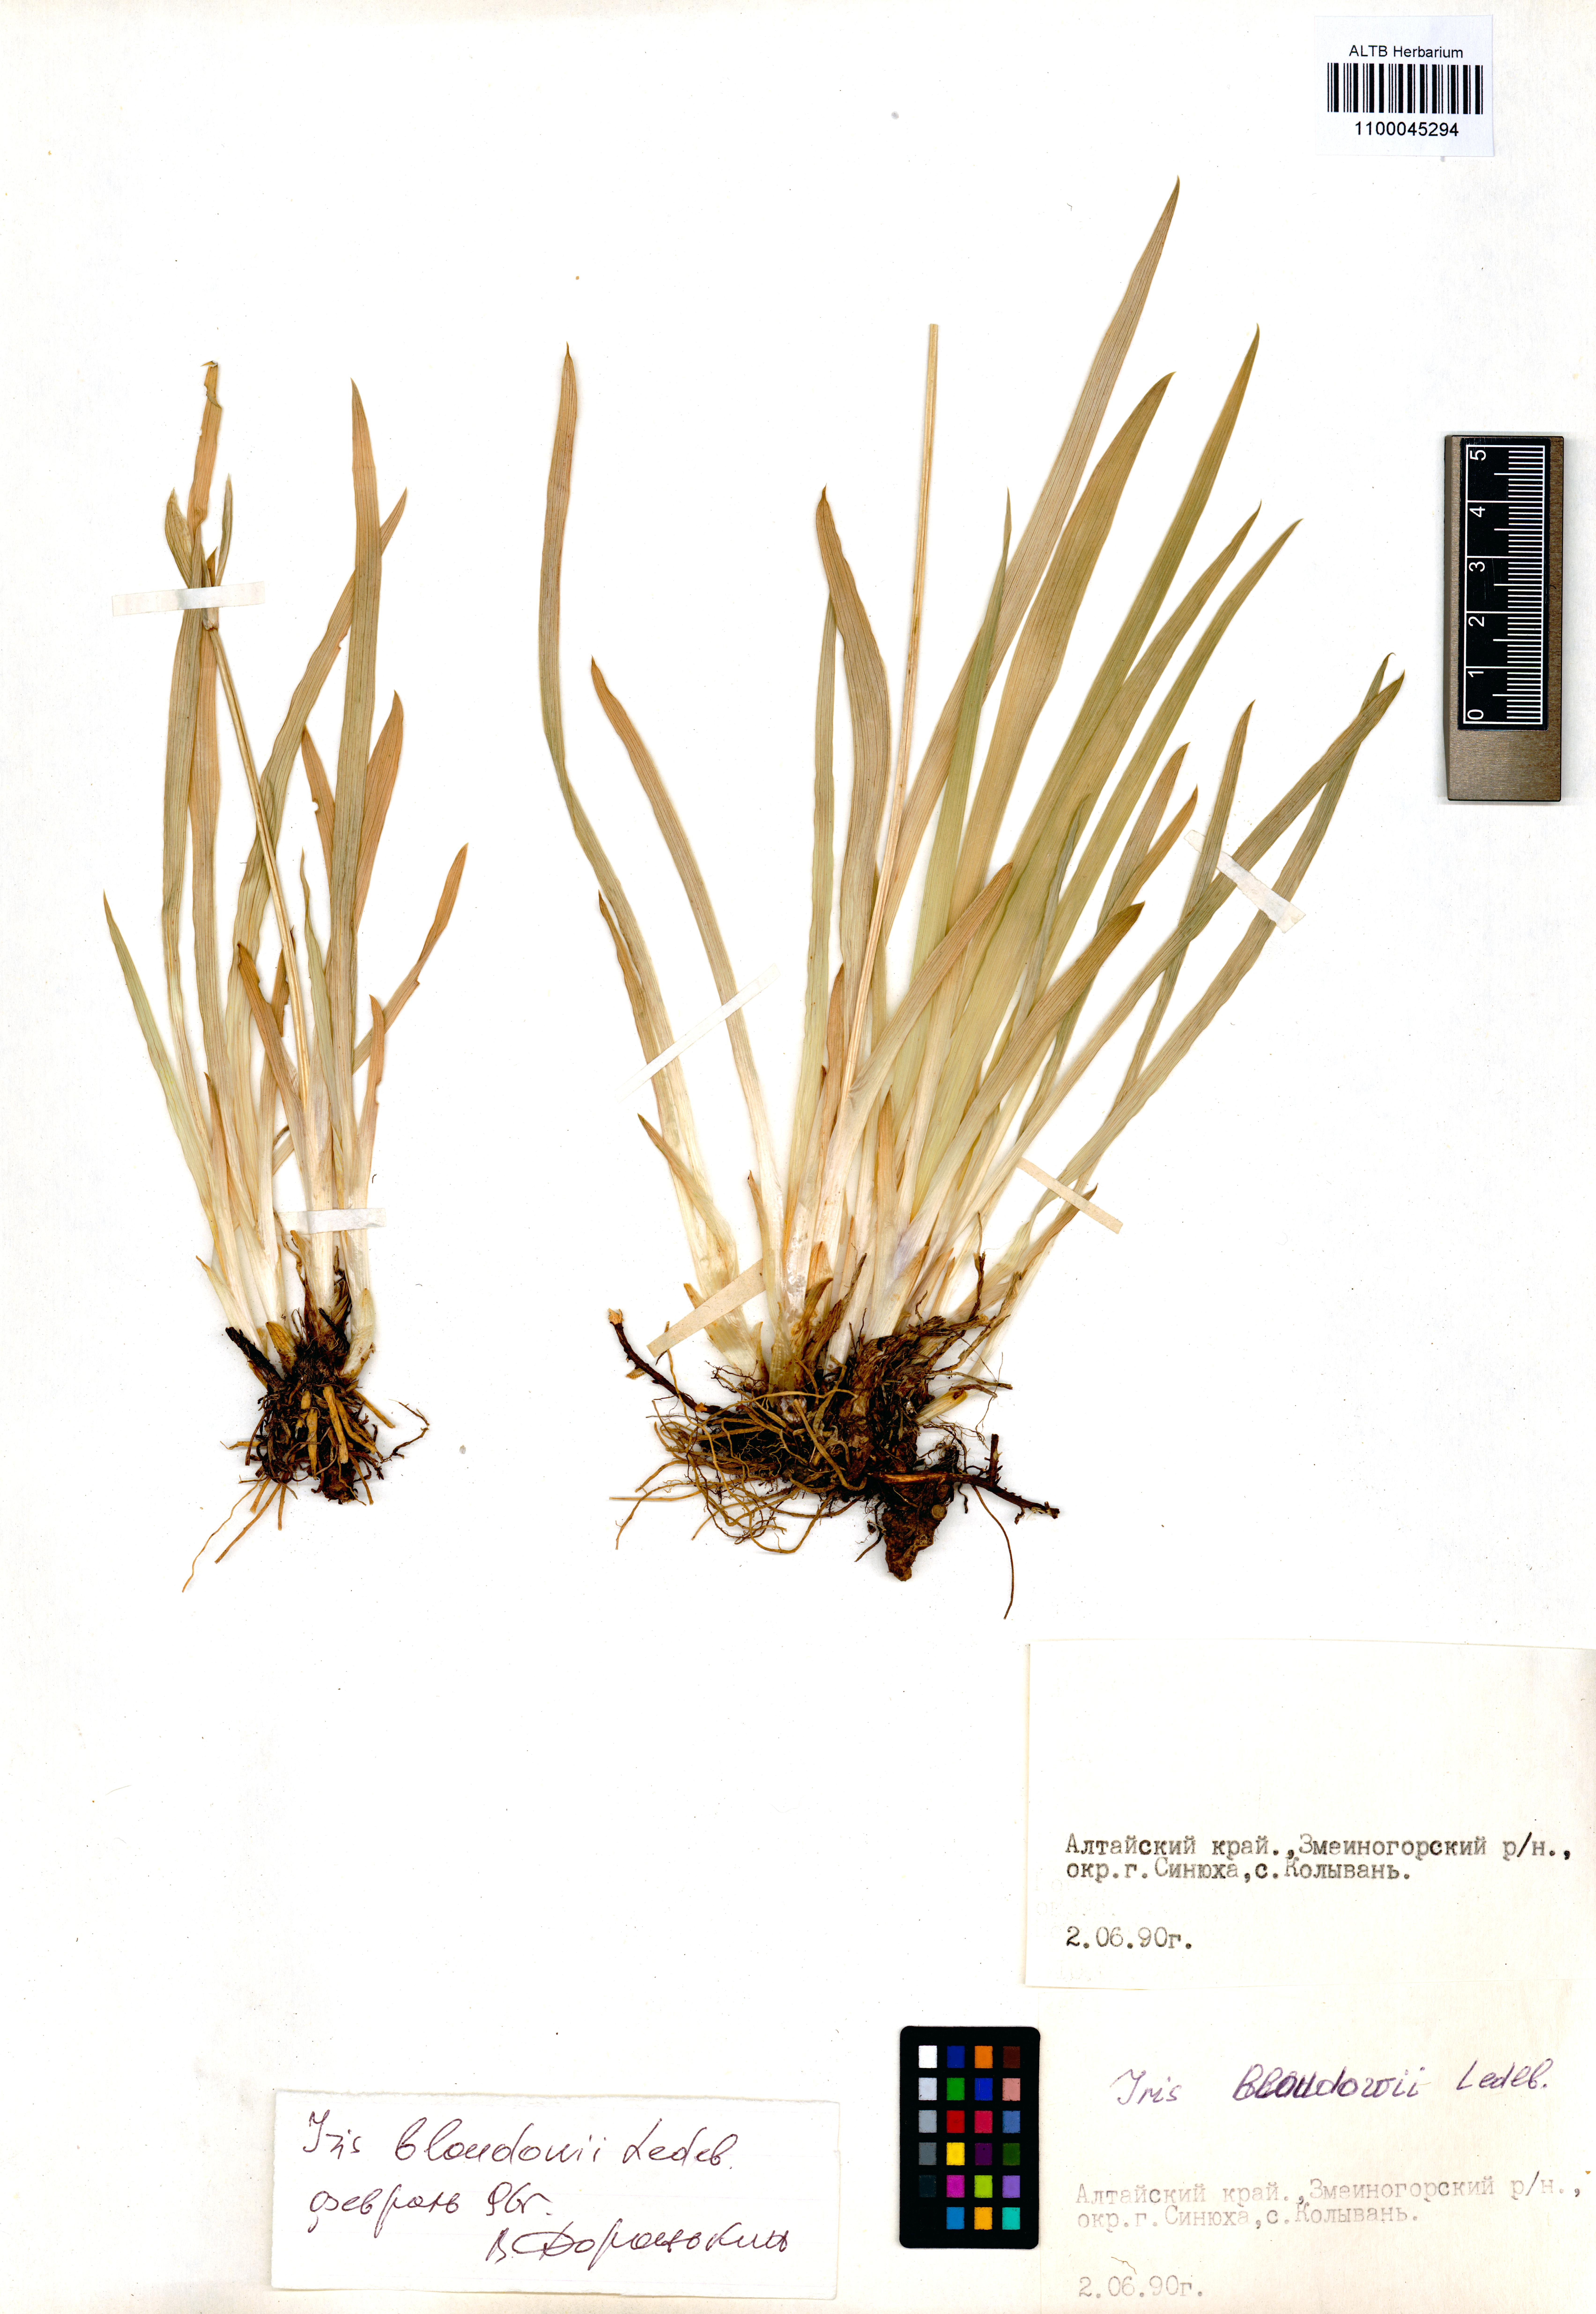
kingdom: Plantae
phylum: Tracheophyta
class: Liliopsida
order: Asparagales
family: Iridaceae
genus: Iris
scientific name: Iris bloudowii
